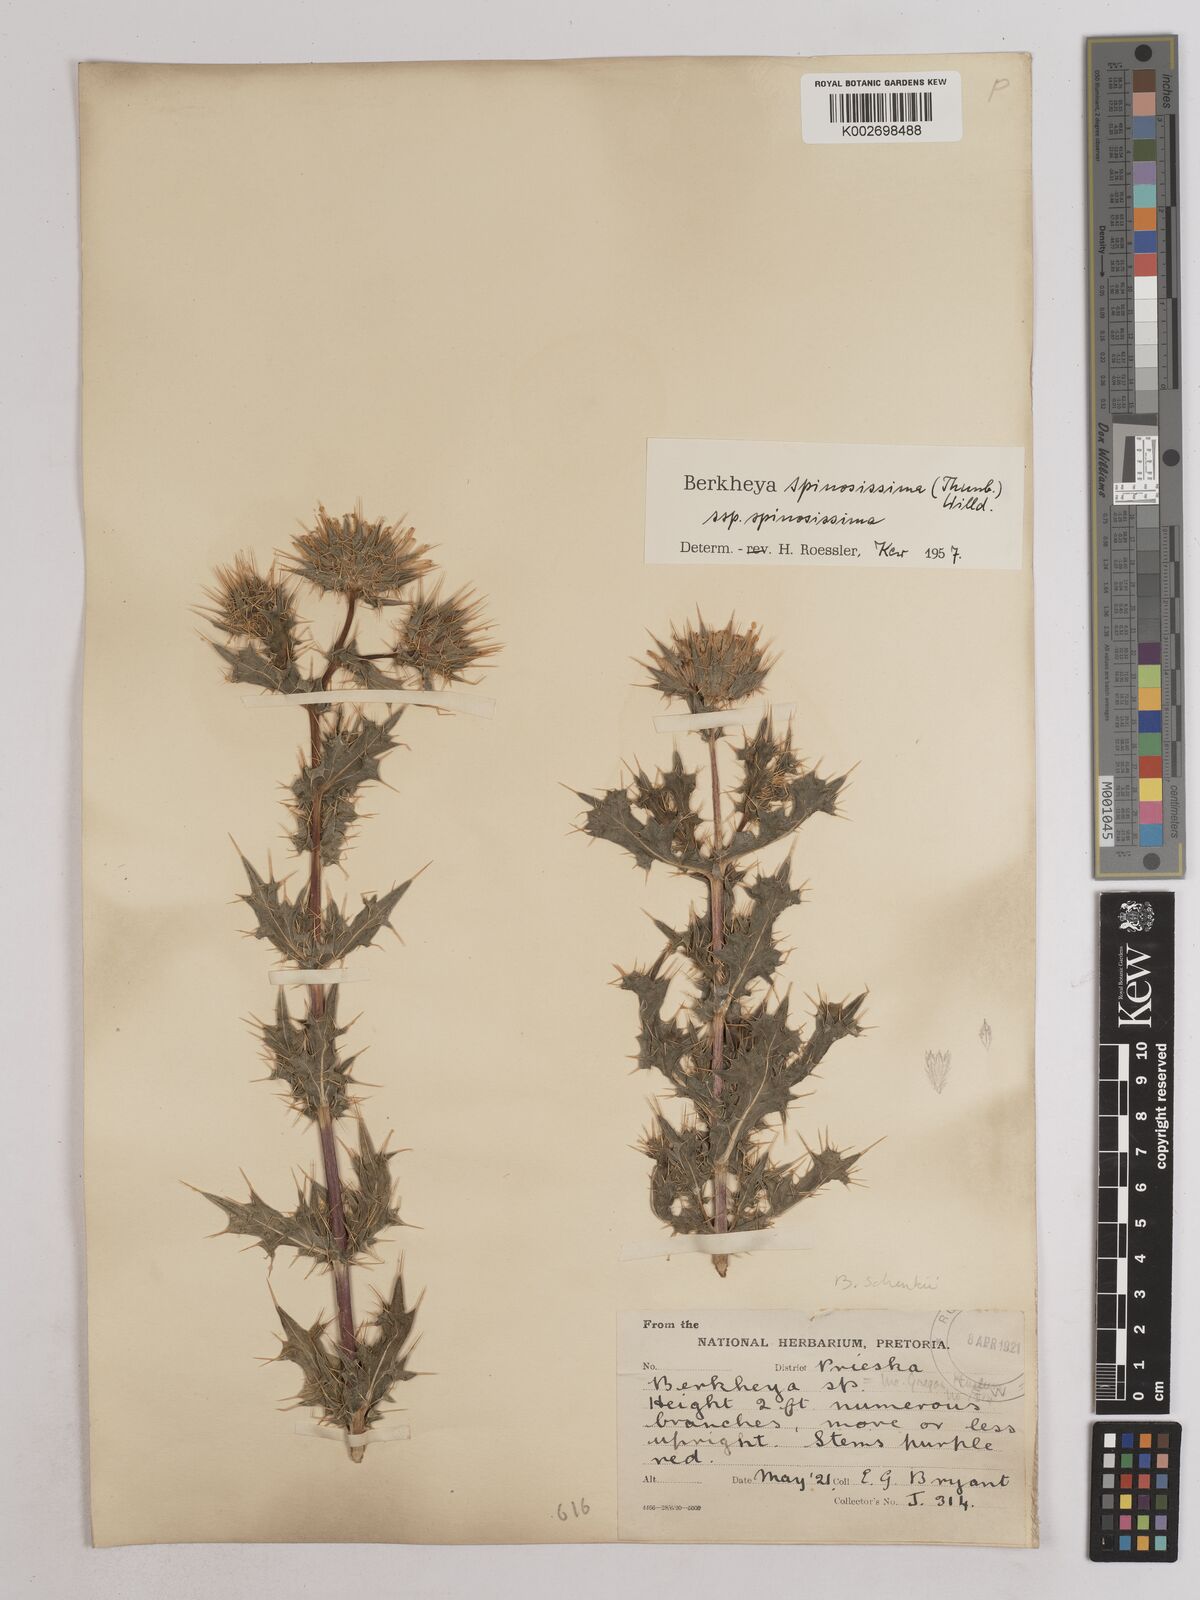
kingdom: Plantae
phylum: Tracheophyta
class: Magnoliopsida
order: Asterales
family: Asteraceae
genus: Berkheya
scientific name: Berkheya spinosissima
